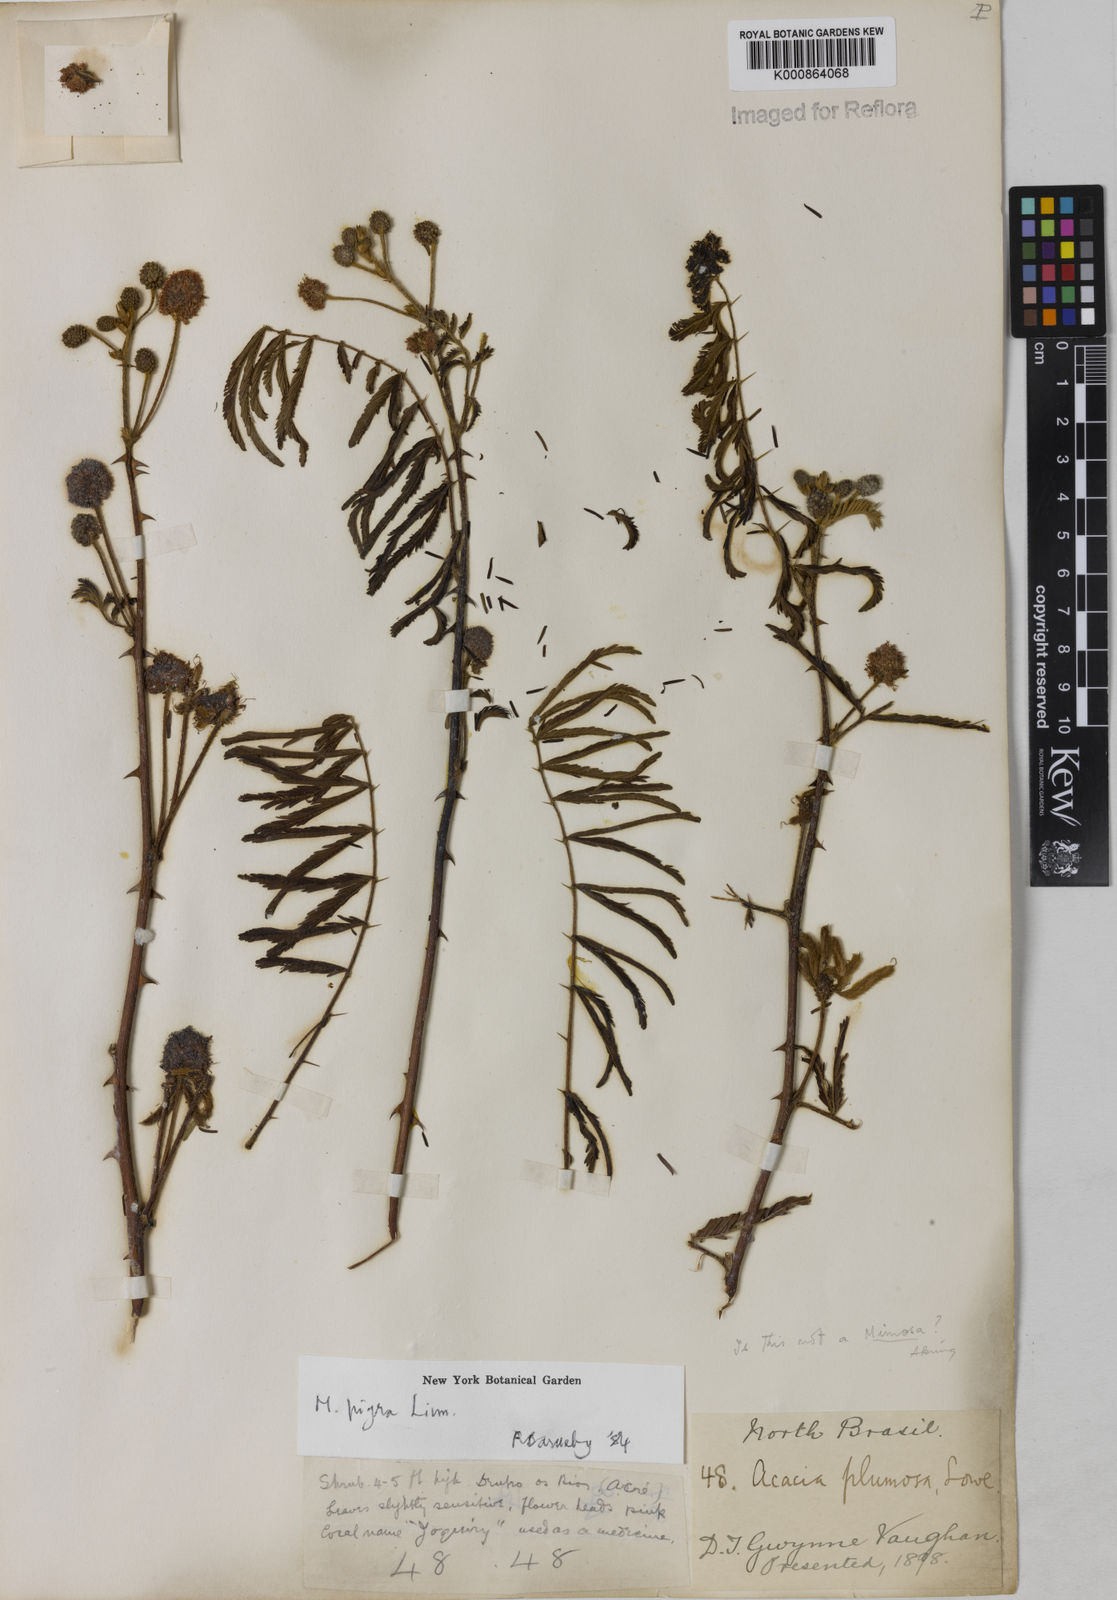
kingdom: Plantae
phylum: Tracheophyta
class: Magnoliopsida
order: Fabales
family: Fabaceae
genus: Mimosa
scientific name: Mimosa pigra
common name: Black mimosa
